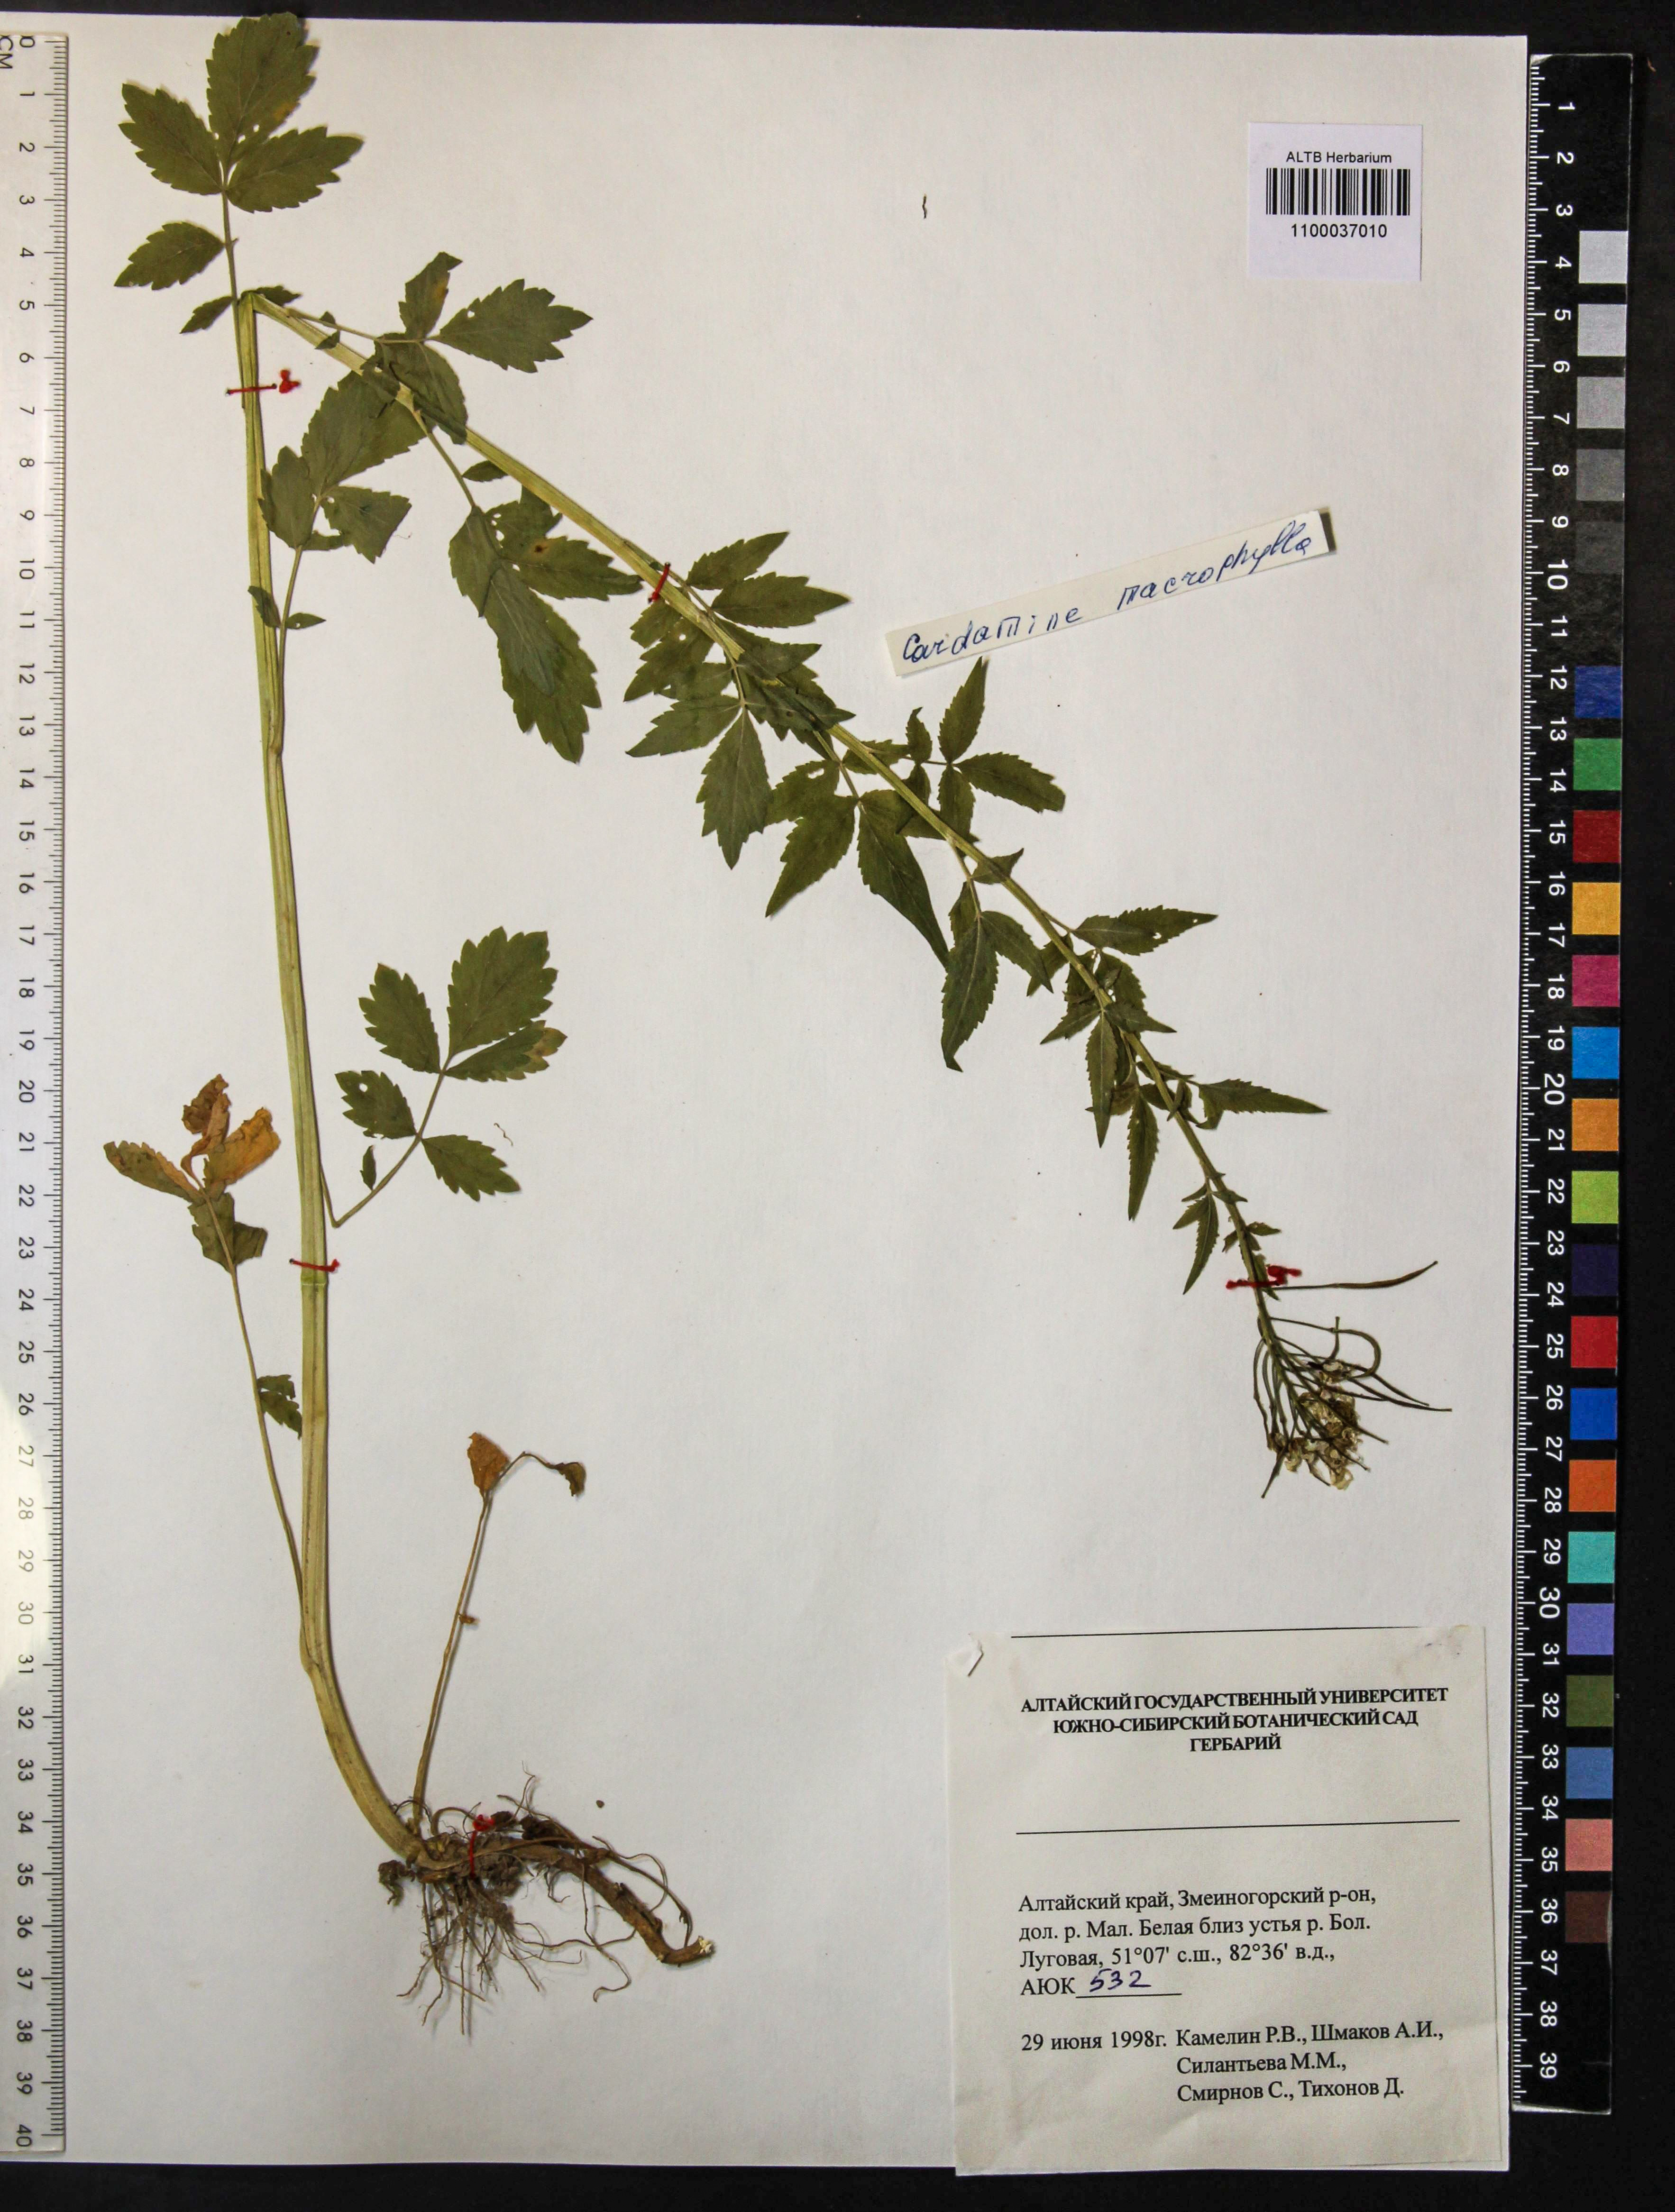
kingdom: Plantae
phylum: Tracheophyta
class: Magnoliopsida
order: Brassicales
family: Brassicaceae
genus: Cardamine
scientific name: Cardamine macrophylla
